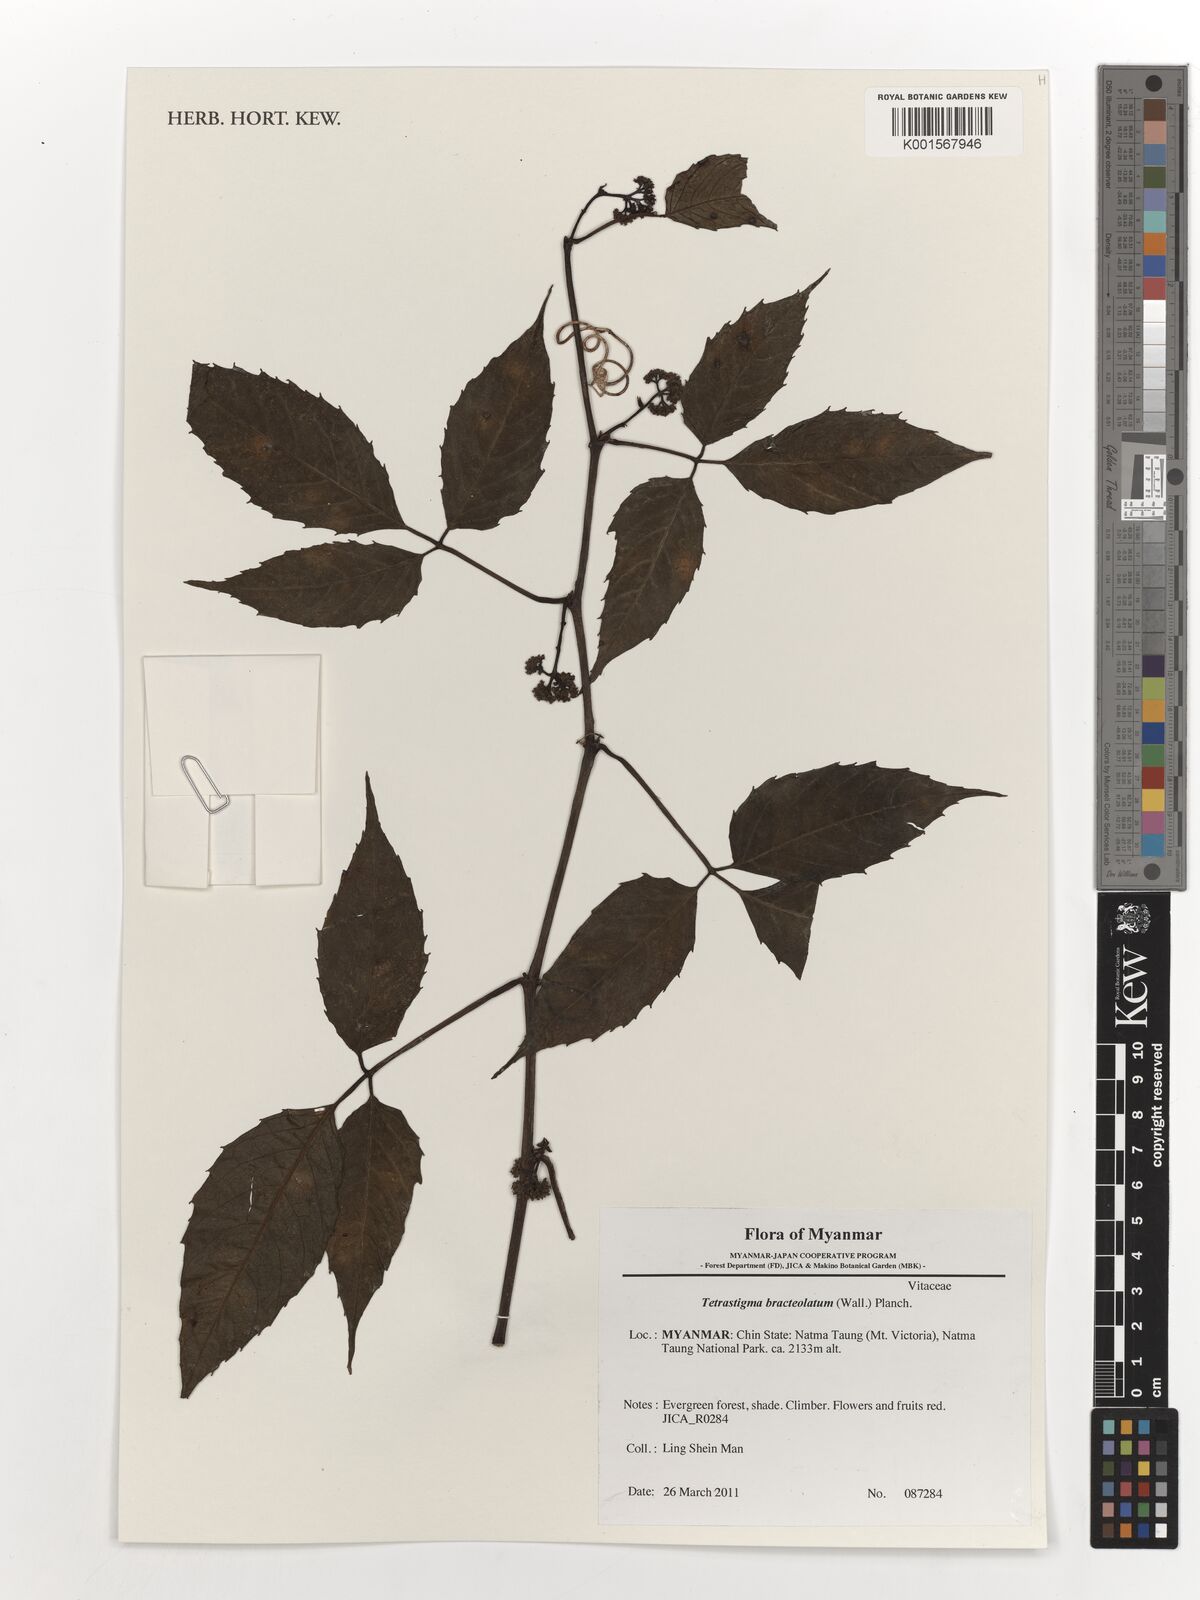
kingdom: Plantae
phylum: Tracheophyta
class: Magnoliopsida
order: Vitales
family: Vitaceae
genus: Tetrastigma
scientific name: Tetrastigma bracteolatum
